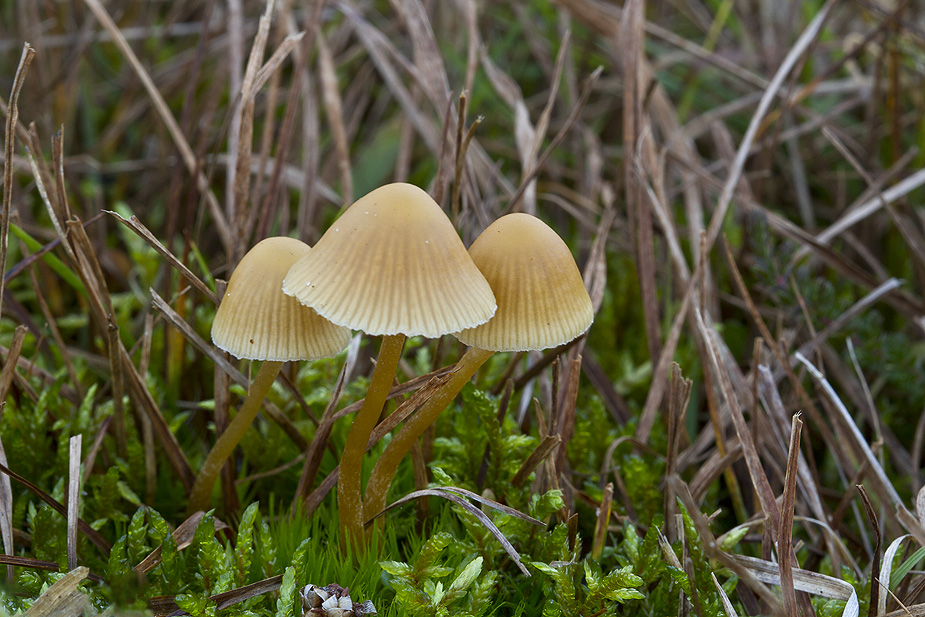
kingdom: Fungi
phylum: Basidiomycota
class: Agaricomycetes
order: Agaricales
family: Hymenogastraceae
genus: Galerina
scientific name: Galerina mniophila
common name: olivengul hjelmhat
